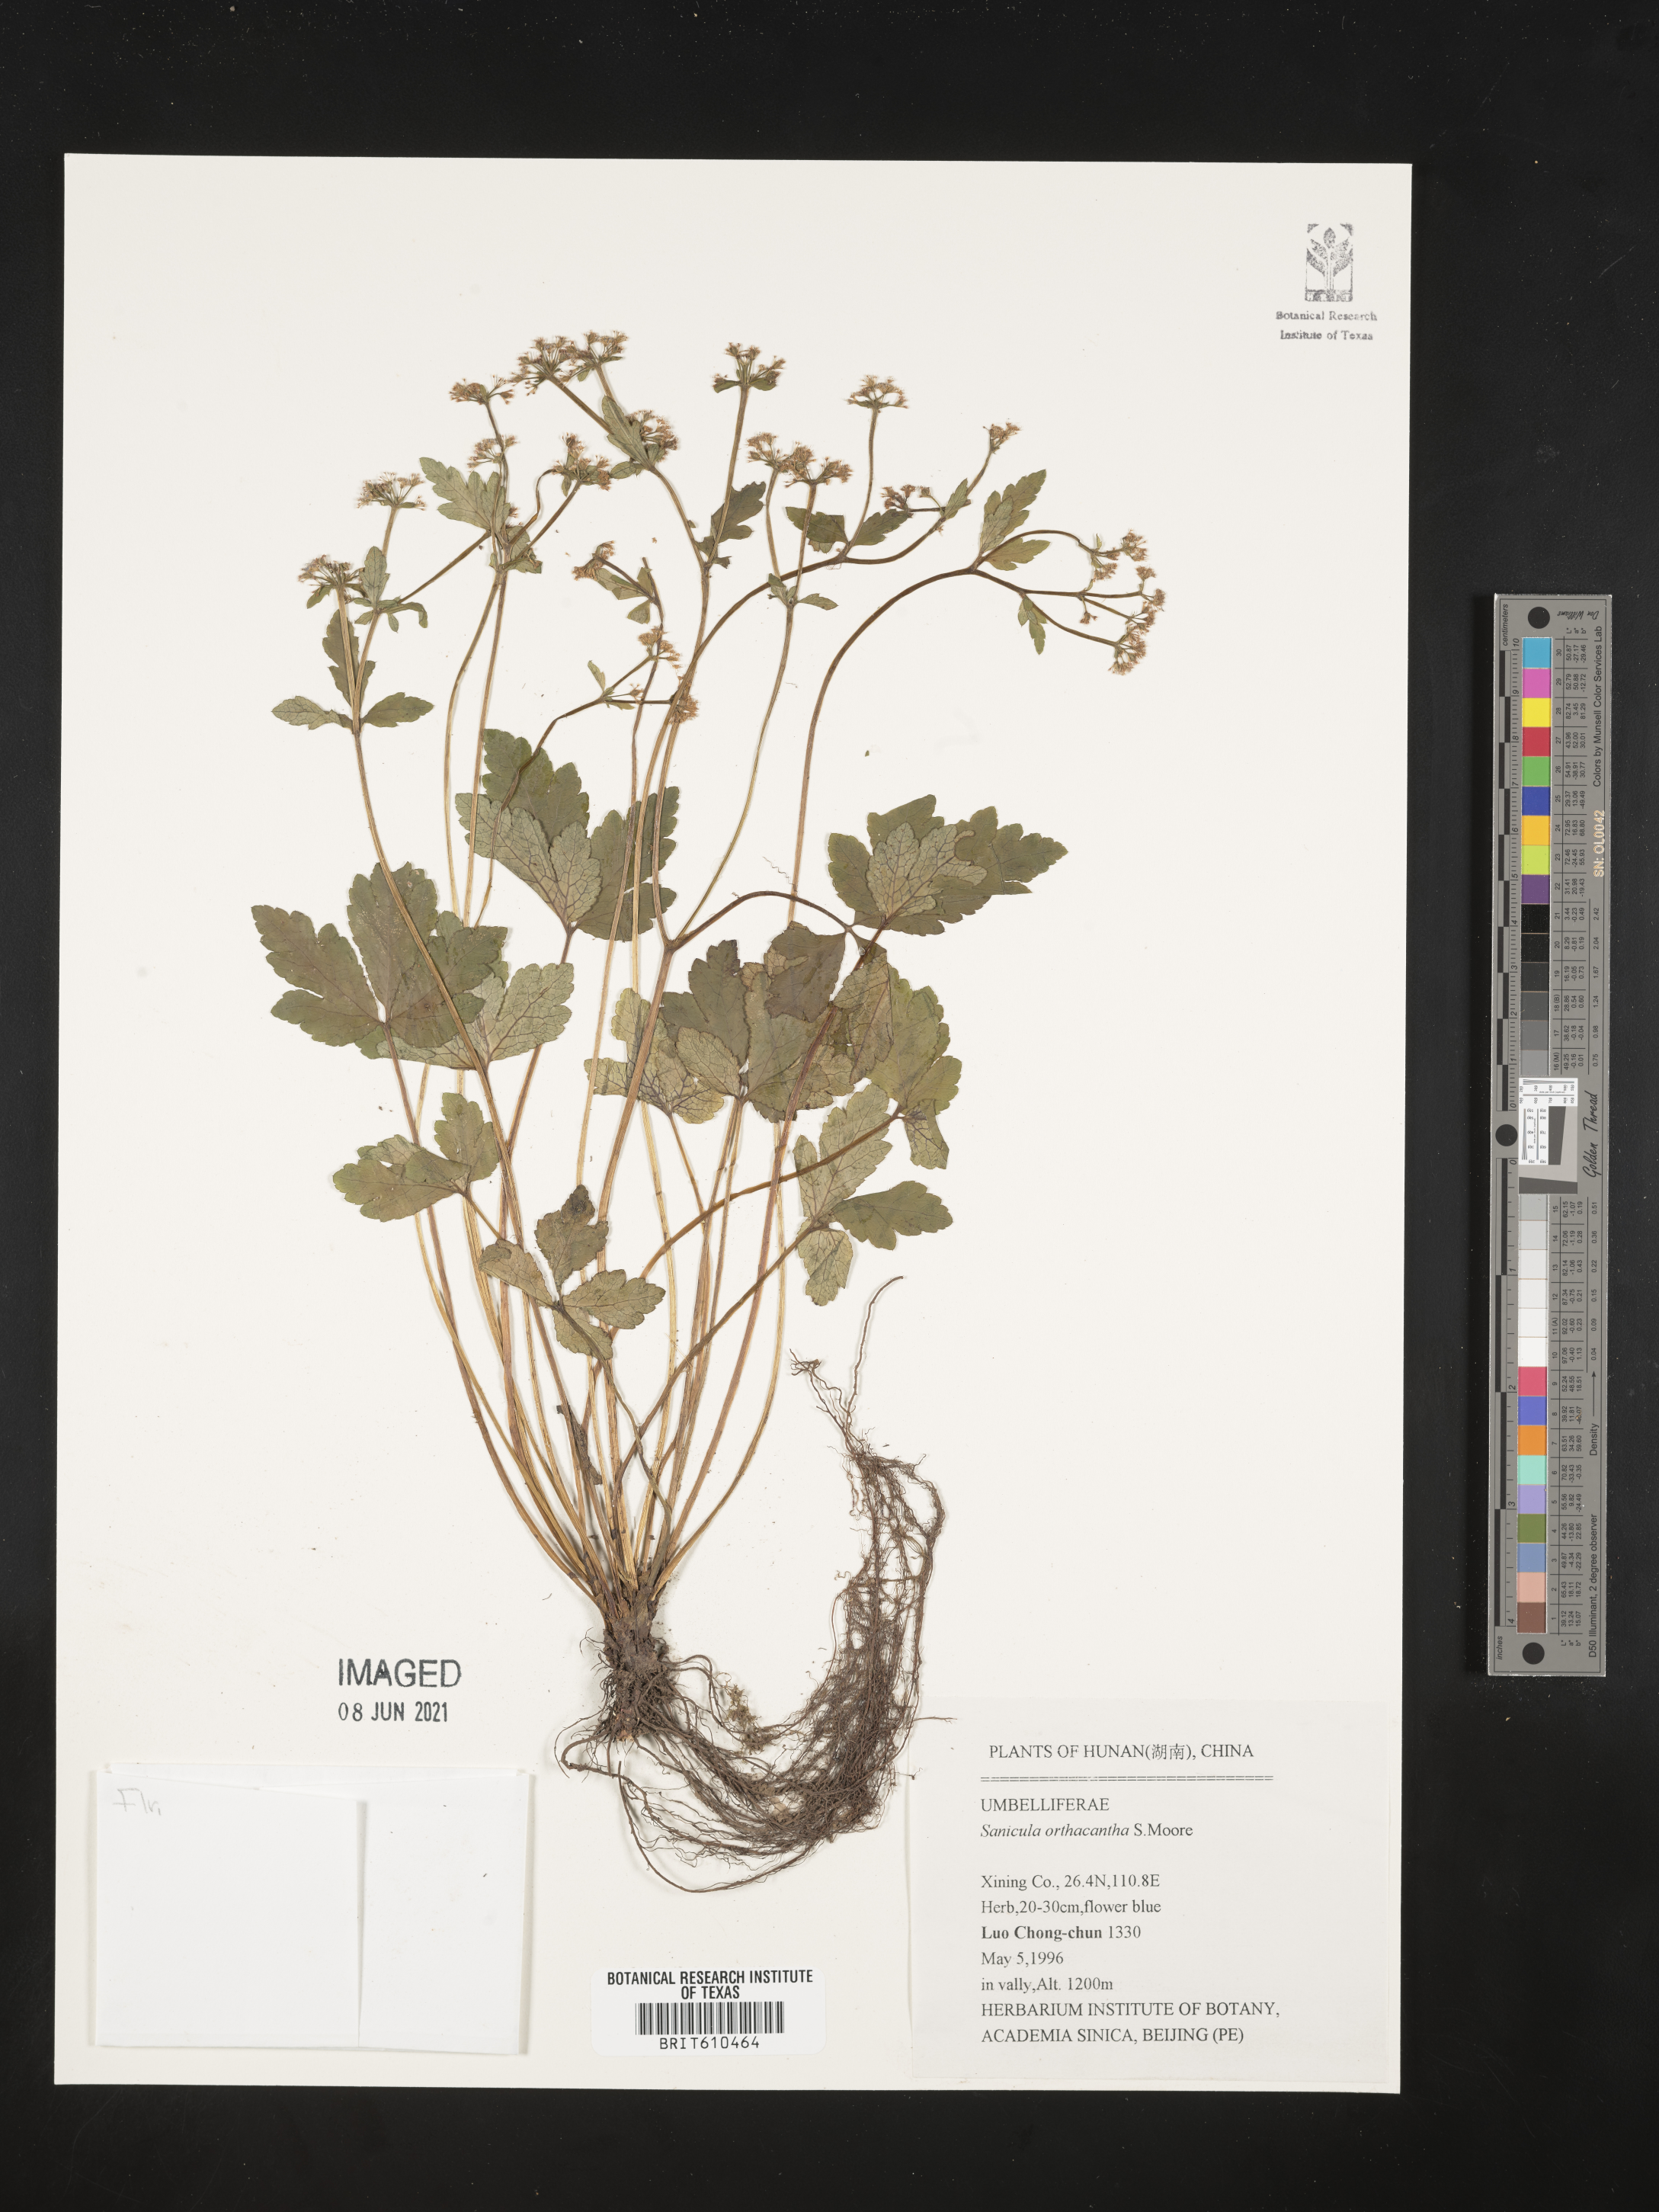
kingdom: Plantae
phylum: Tracheophyta
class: Magnoliopsida
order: Apiales
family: Apiaceae
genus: Sanicula
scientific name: Sanicula orthacantha
